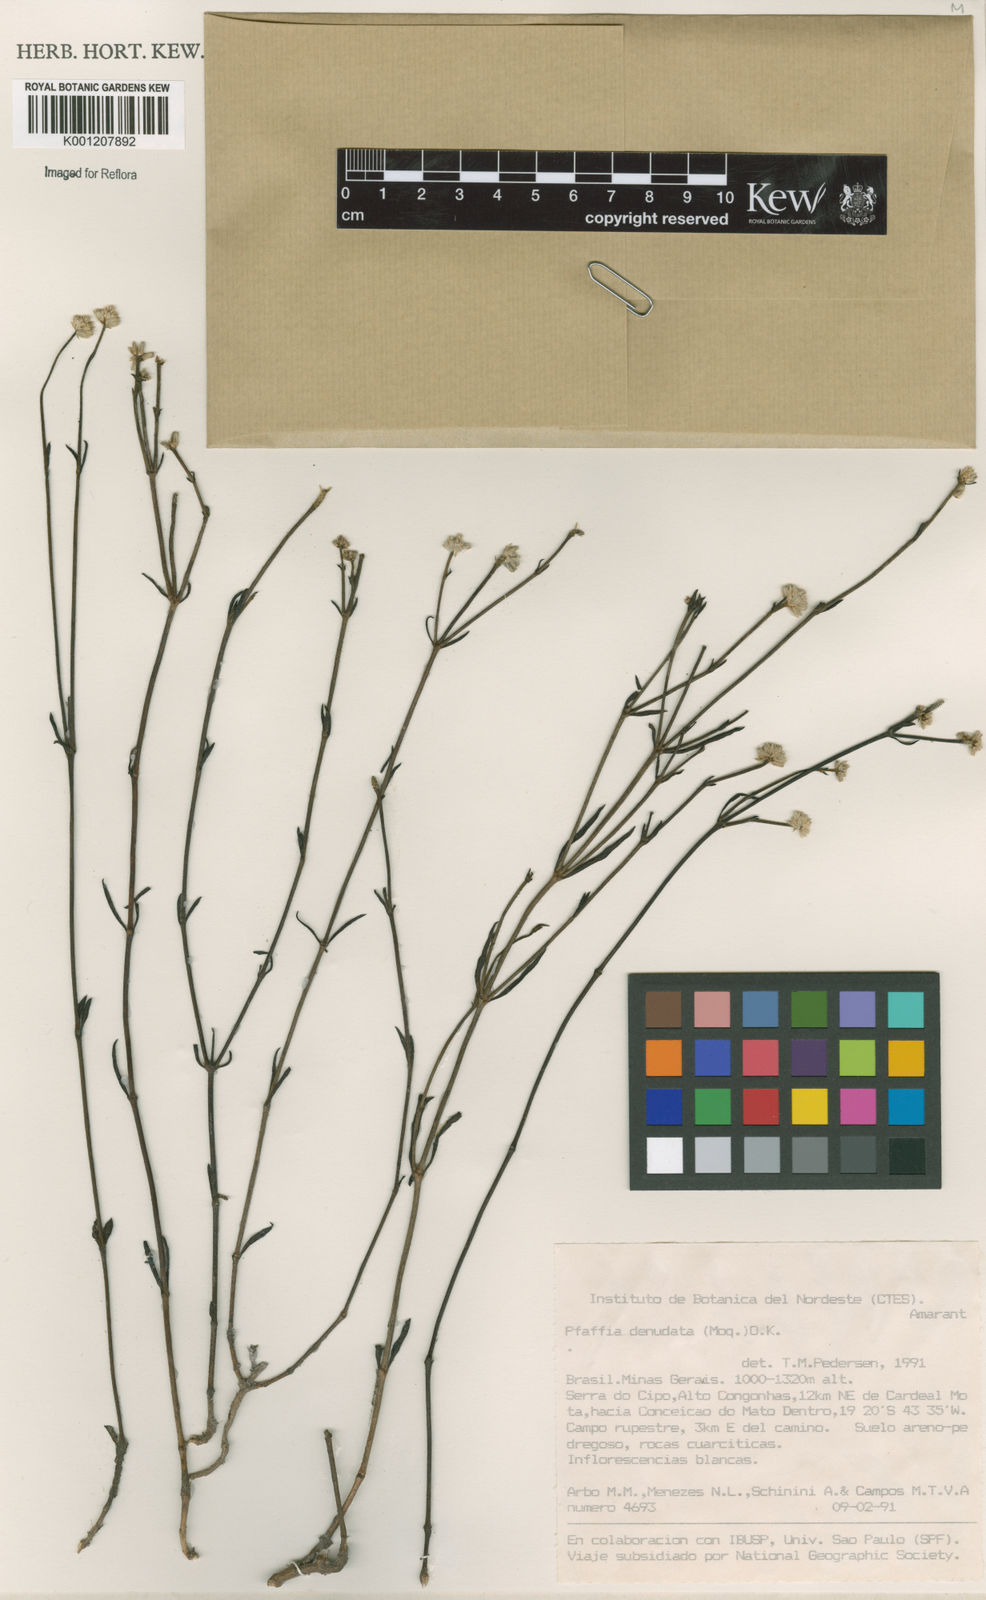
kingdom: Plantae
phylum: Tracheophyta
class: Magnoliopsida
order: Caryophyllales
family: Amaranthaceae
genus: Pfaffia
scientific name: Pfaffia denudata
